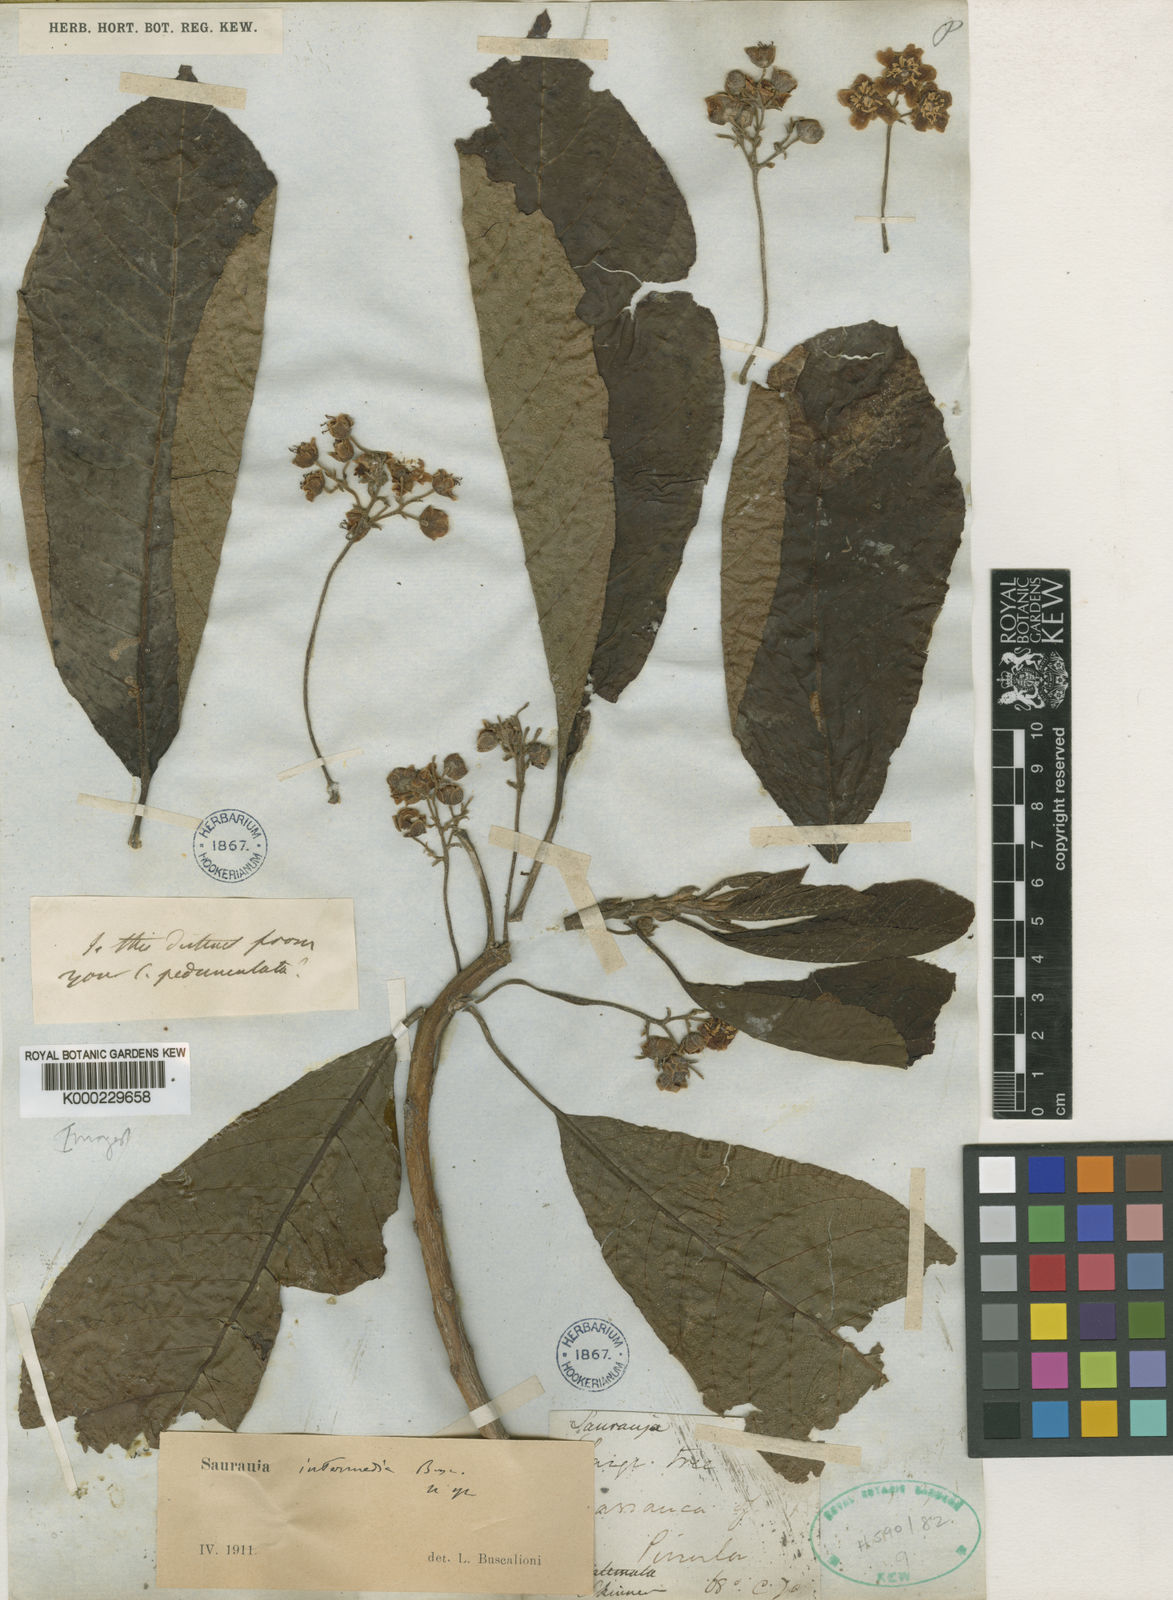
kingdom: Plantae
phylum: Tracheophyta
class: Magnoliopsida
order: Ericales
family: Actinidiaceae
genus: Saurauia
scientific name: Saurauia kegeliana
